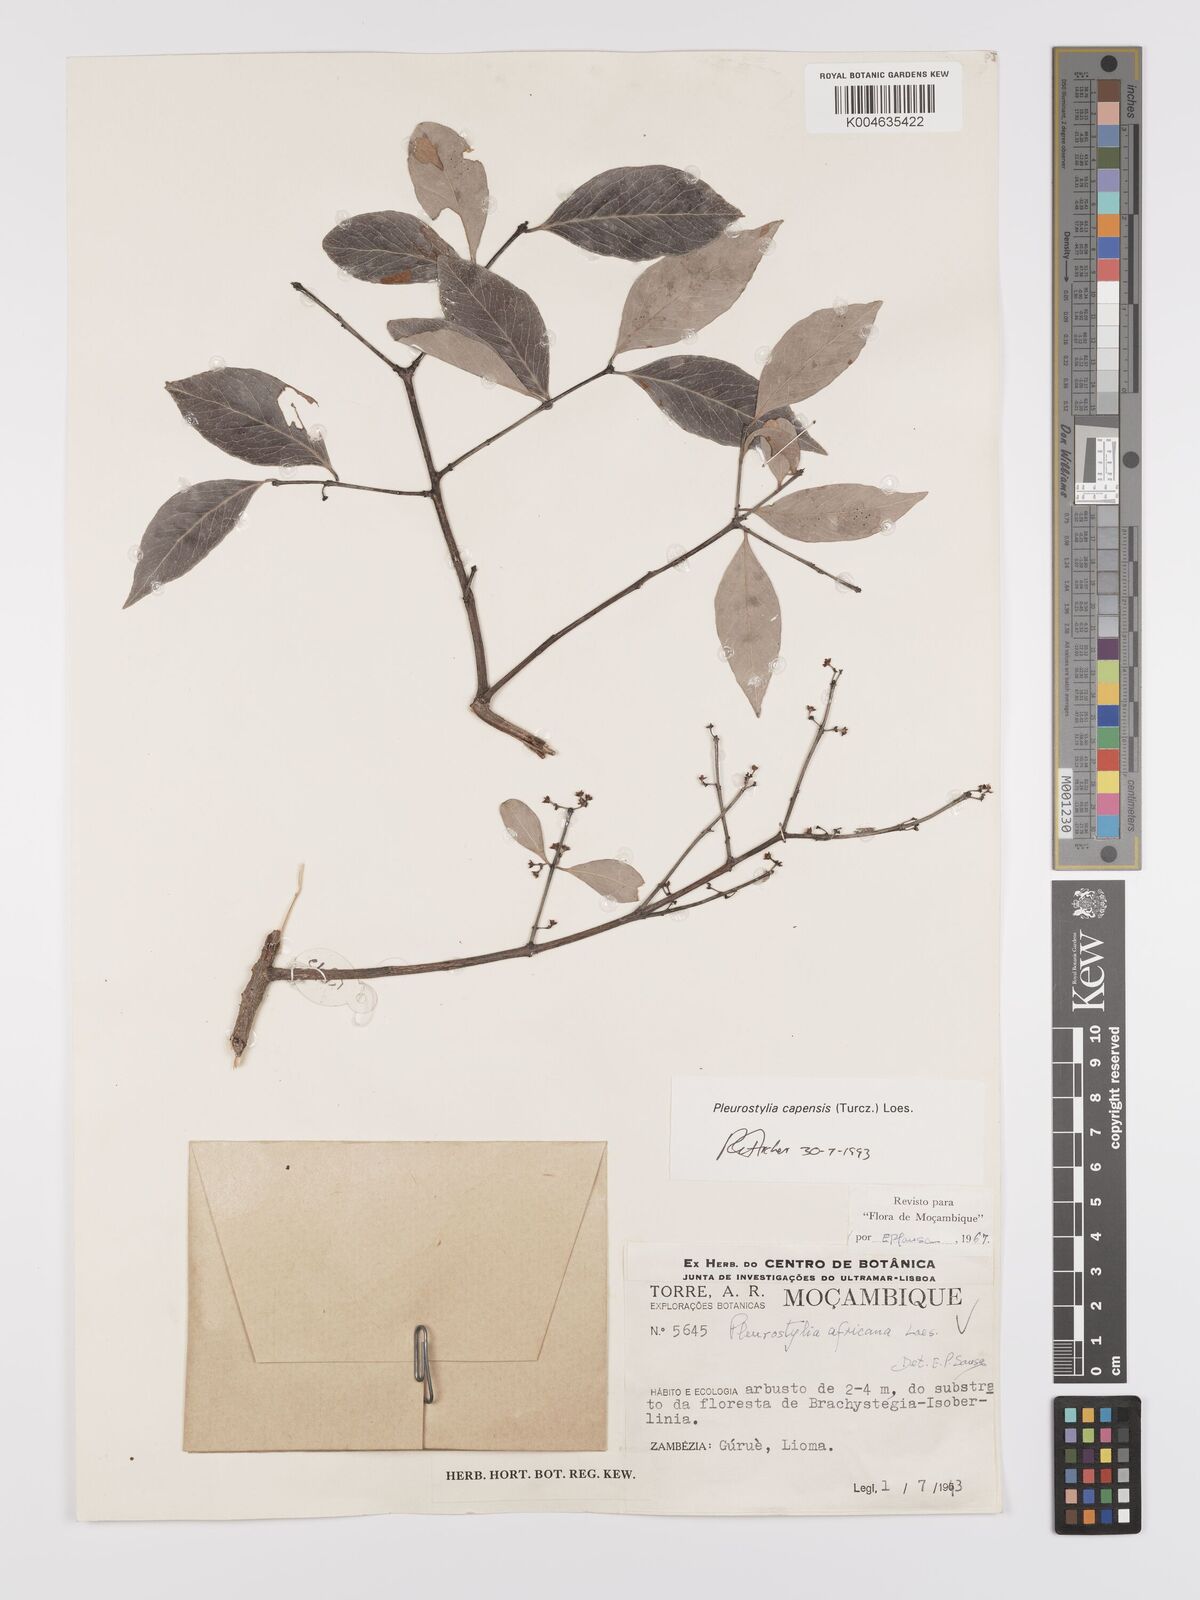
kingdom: Plantae
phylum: Tracheophyta
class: Magnoliopsida
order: Celastrales
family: Celastraceae
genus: Pleurostylia
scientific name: Pleurostylia africana
